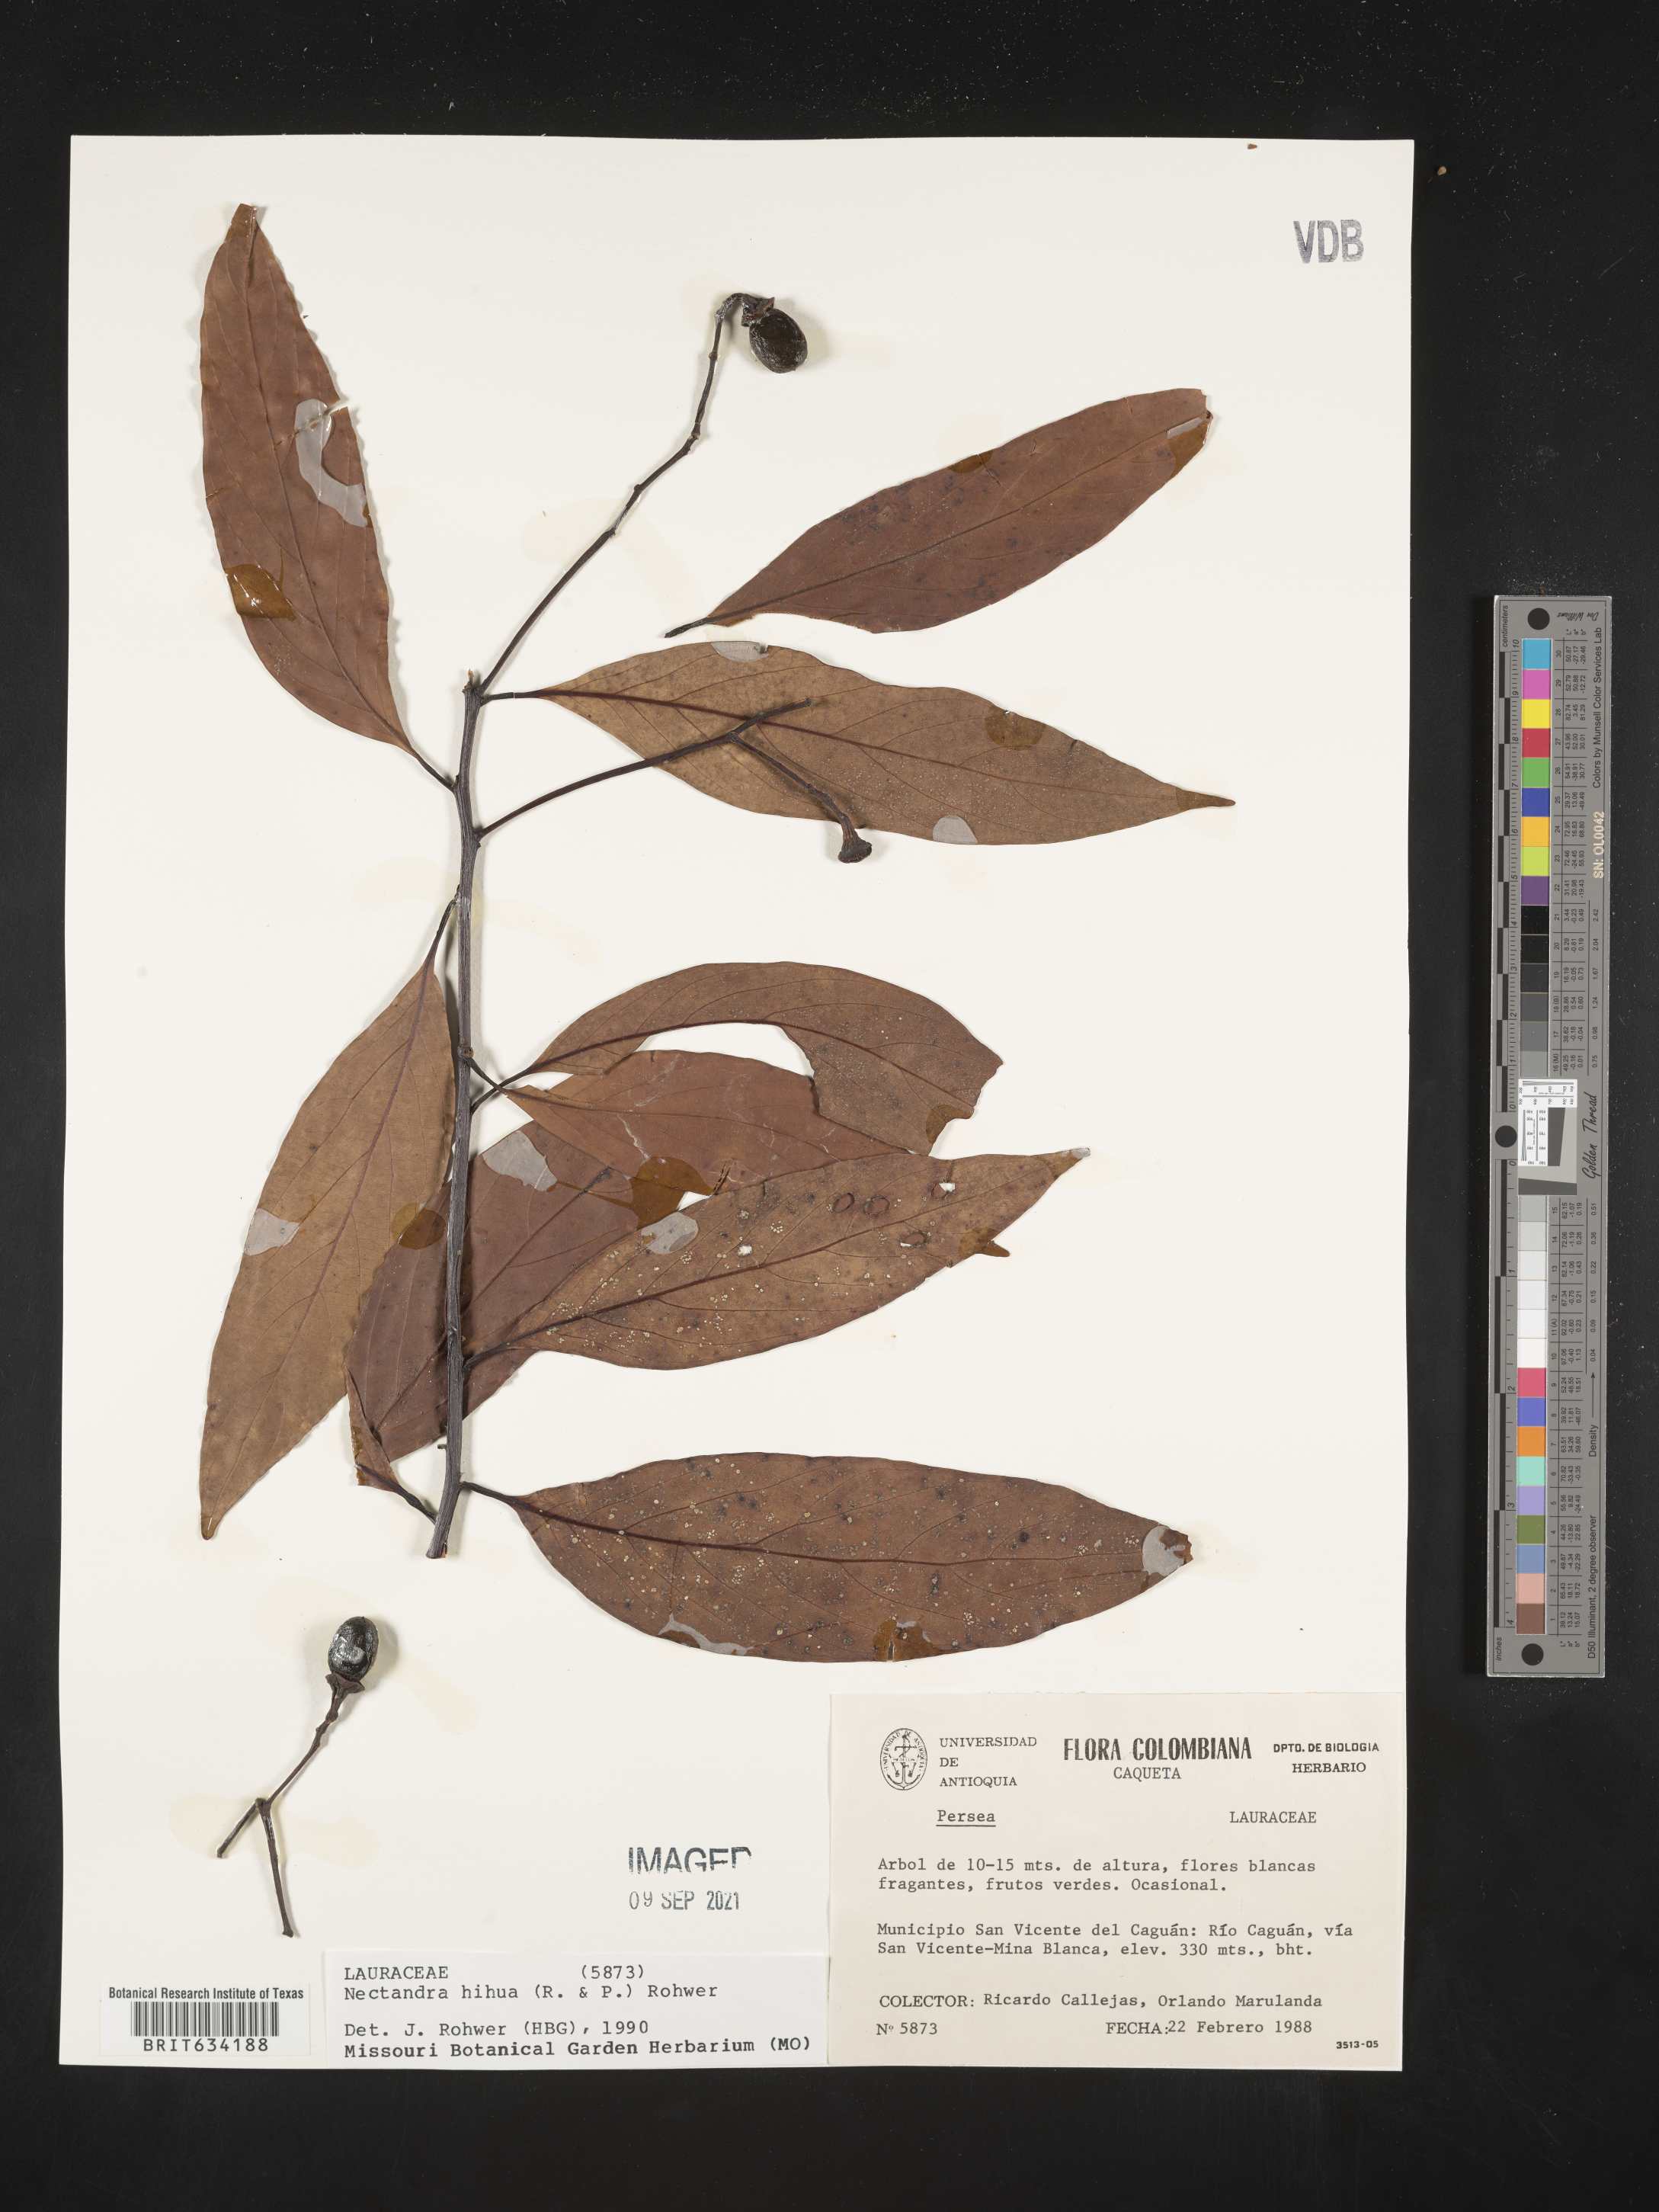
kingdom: Plantae
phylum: Tracheophyta
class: Magnoliopsida
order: Laurales
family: Lauraceae
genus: Nectandra
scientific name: Nectandra
